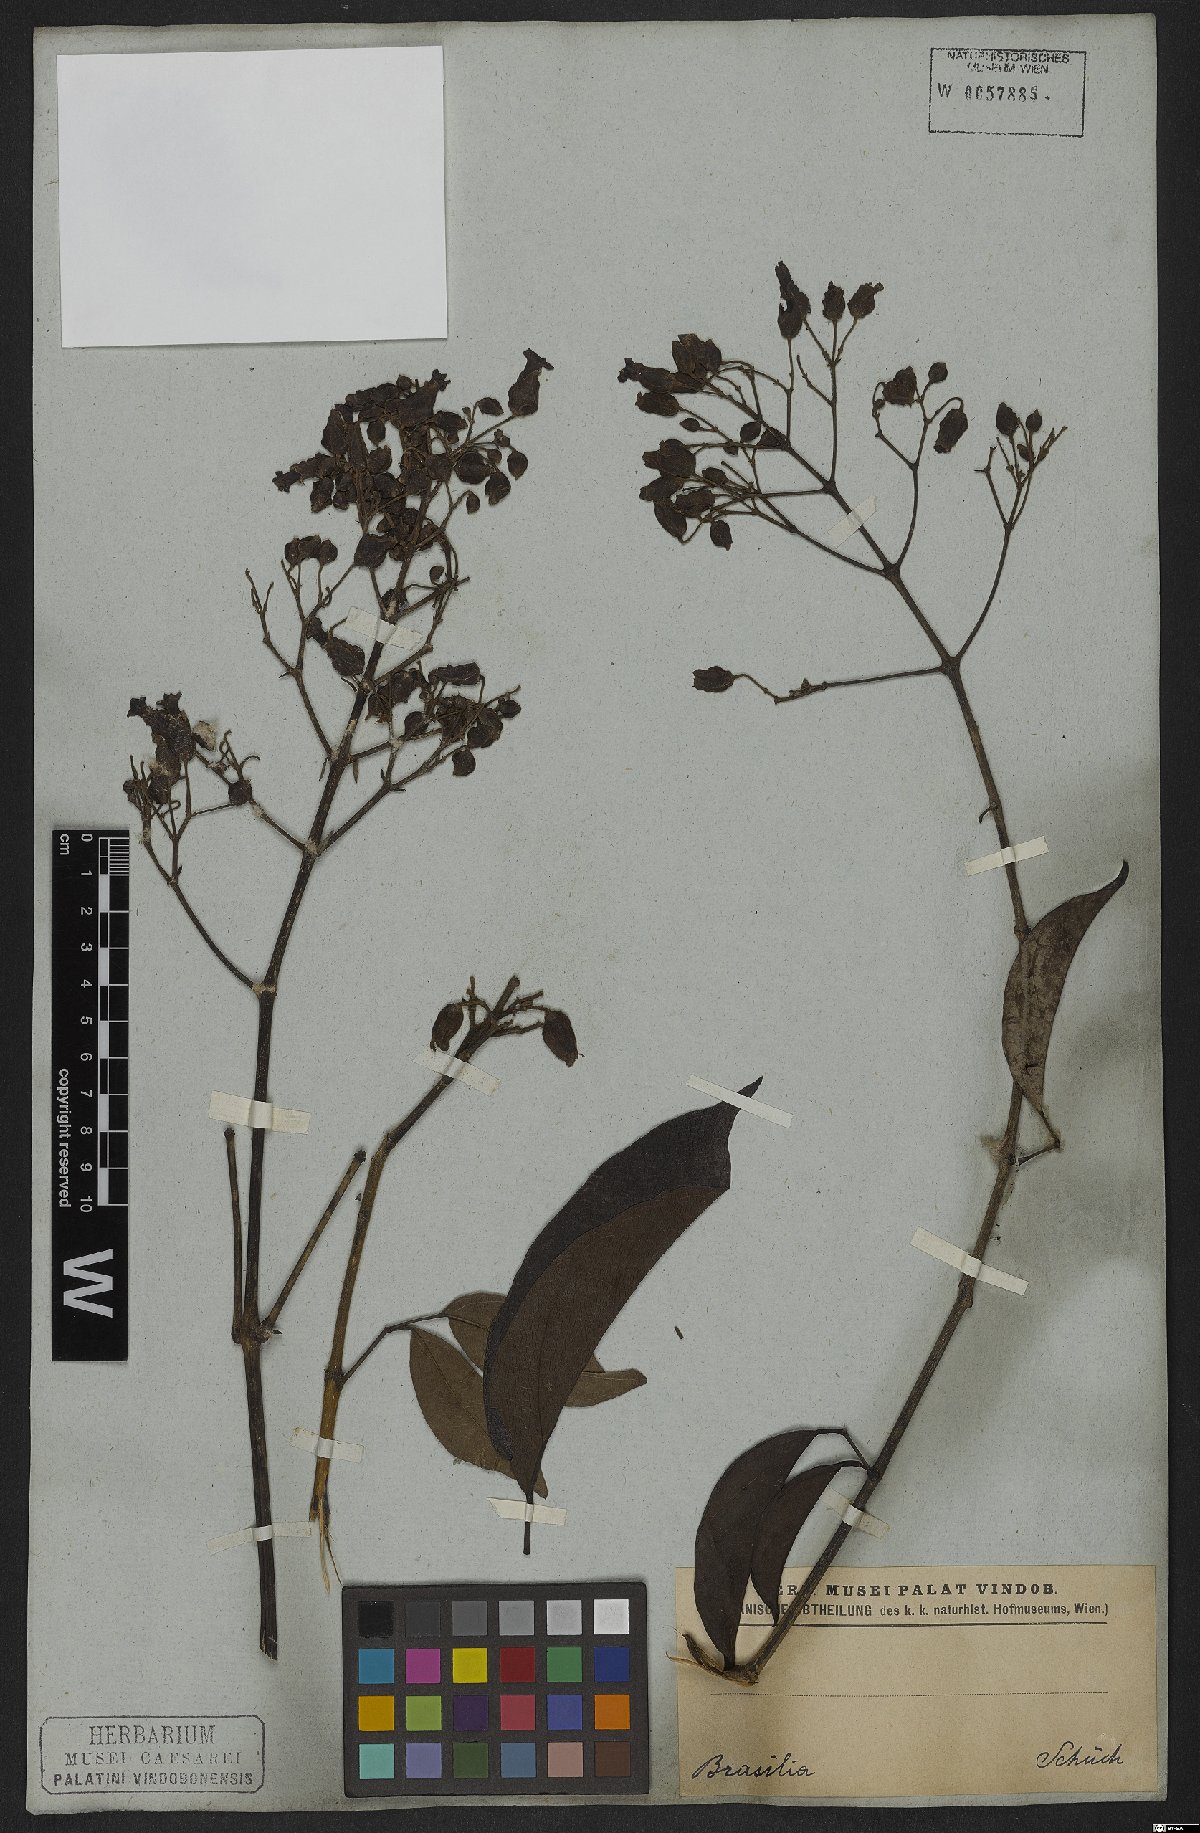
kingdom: Plantae
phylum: Tracheophyta
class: Magnoliopsida
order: Lamiales
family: Bignoniaceae
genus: Fridericia
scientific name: Fridericia speciosa
